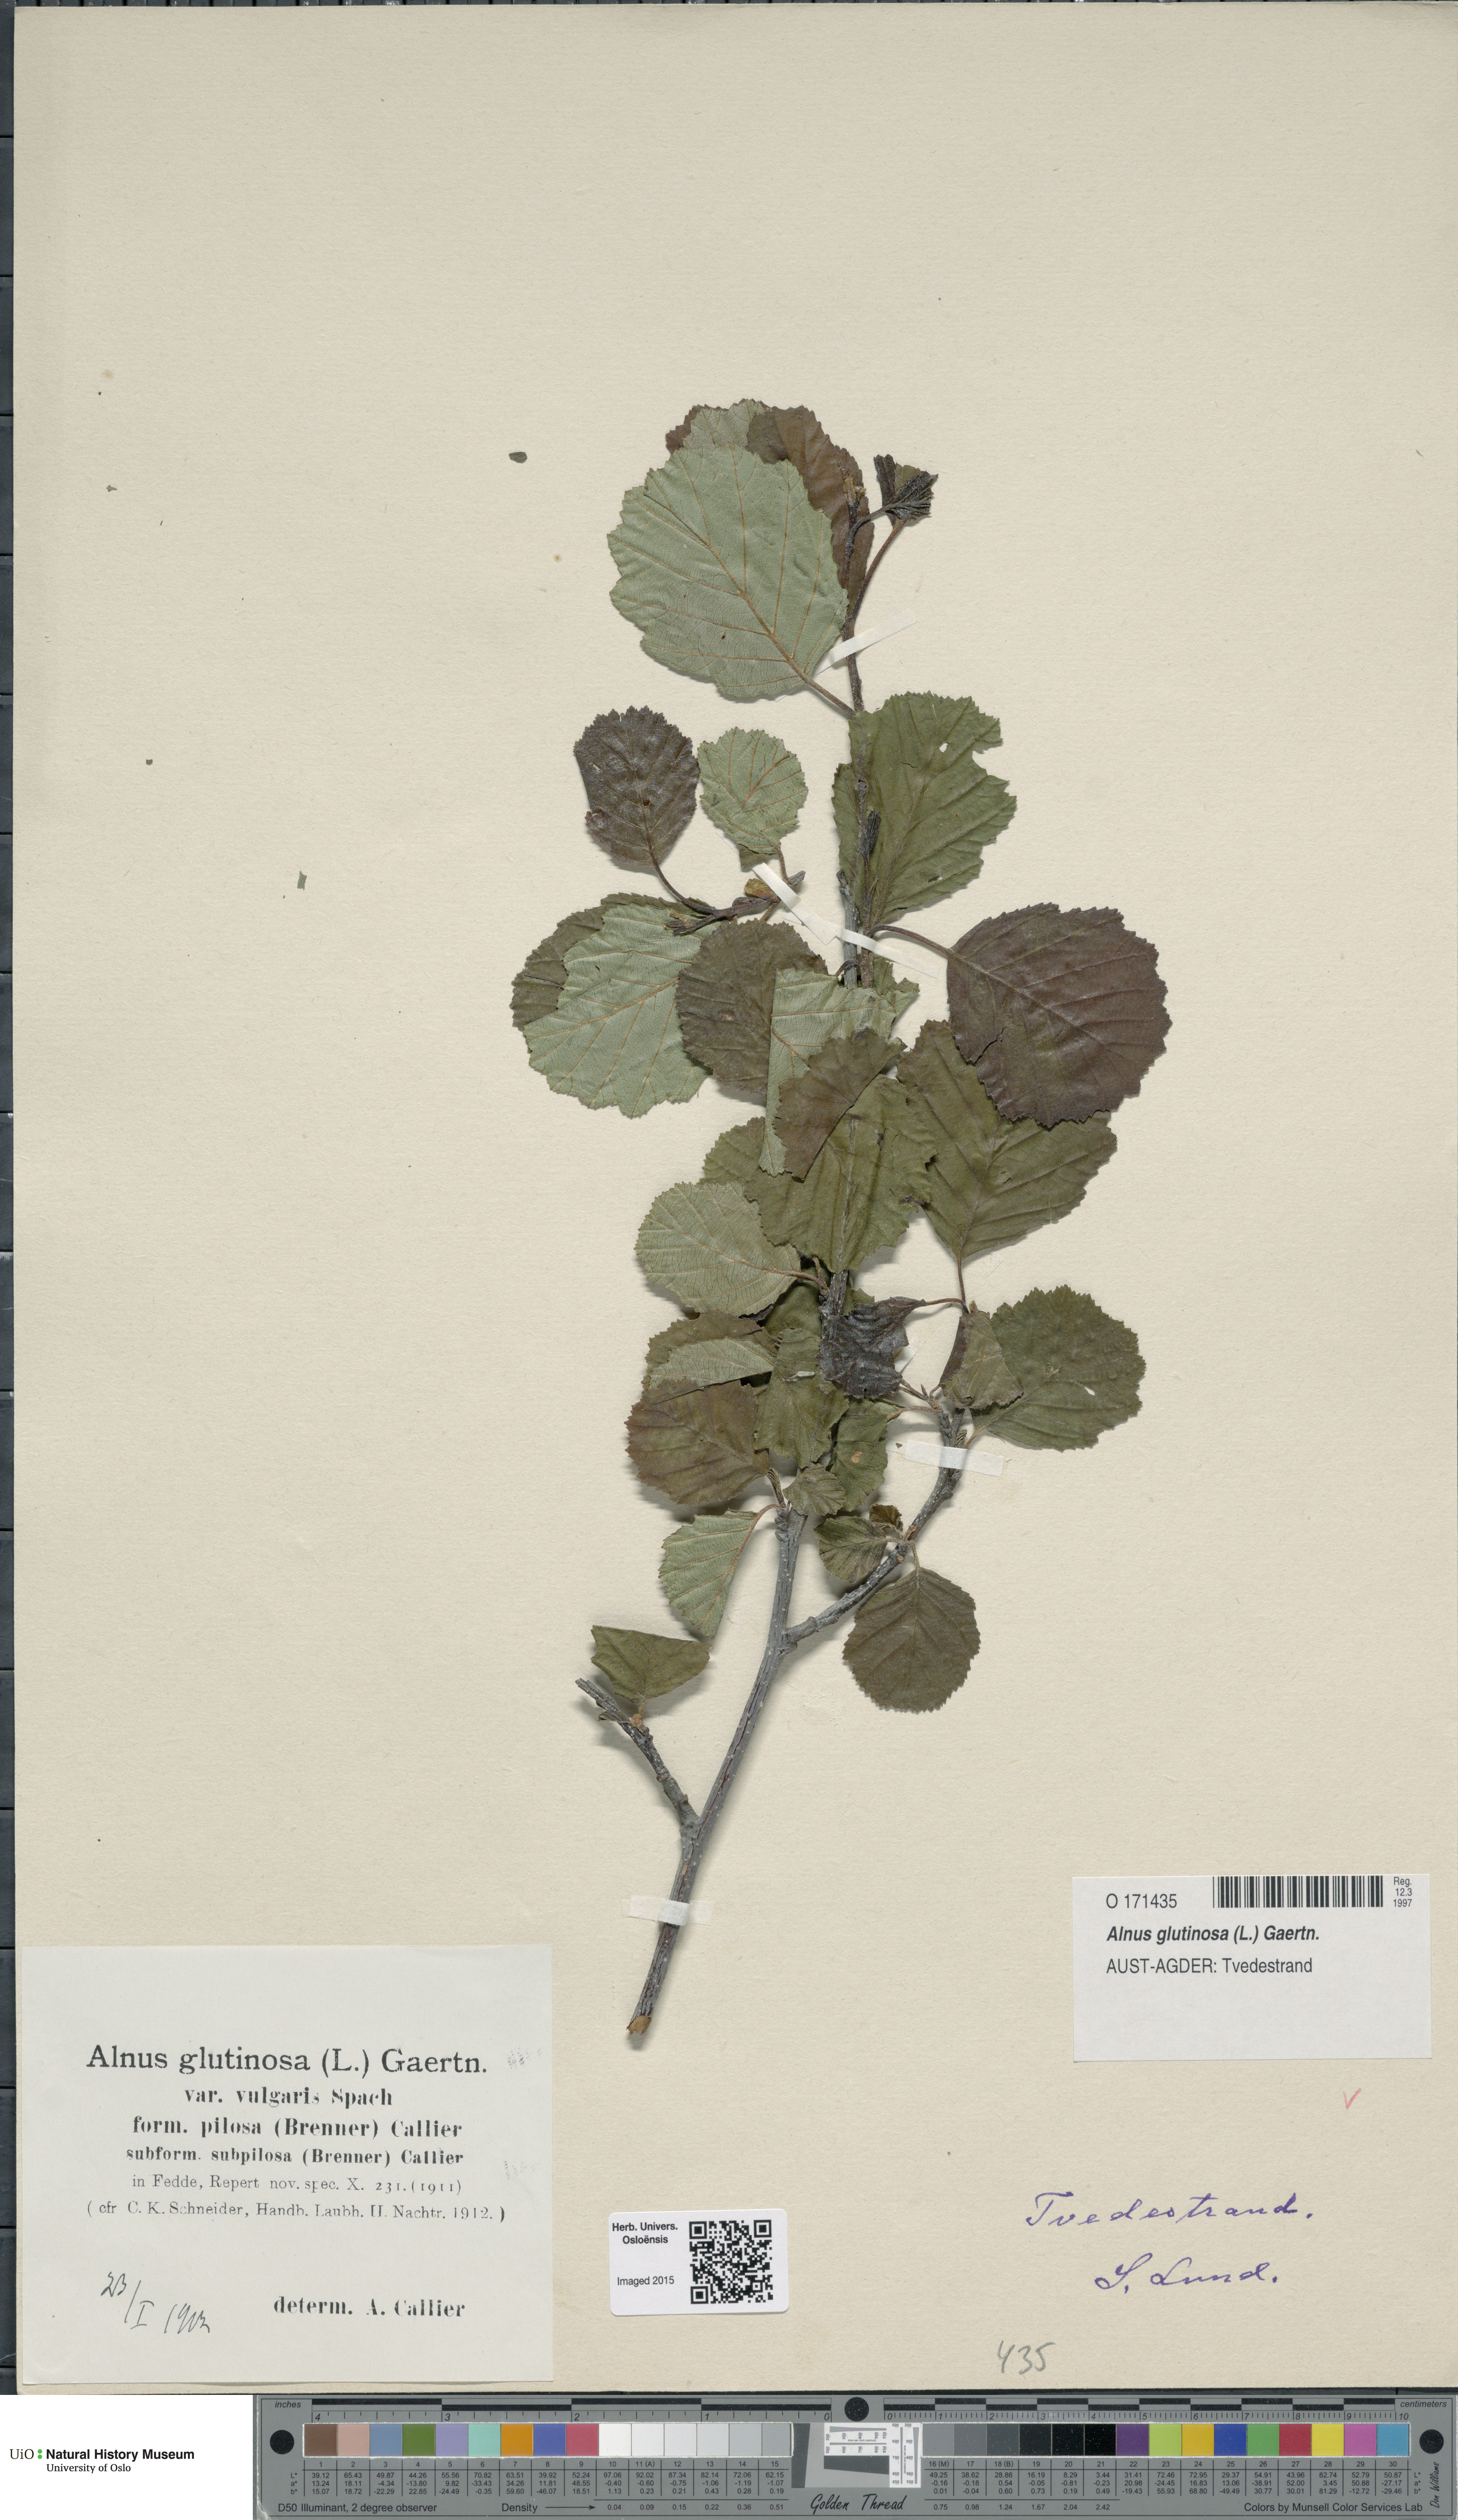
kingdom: Plantae
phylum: Tracheophyta
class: Magnoliopsida
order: Fagales
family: Betulaceae
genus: Alnus
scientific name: Alnus glutinosa
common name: Black alder
